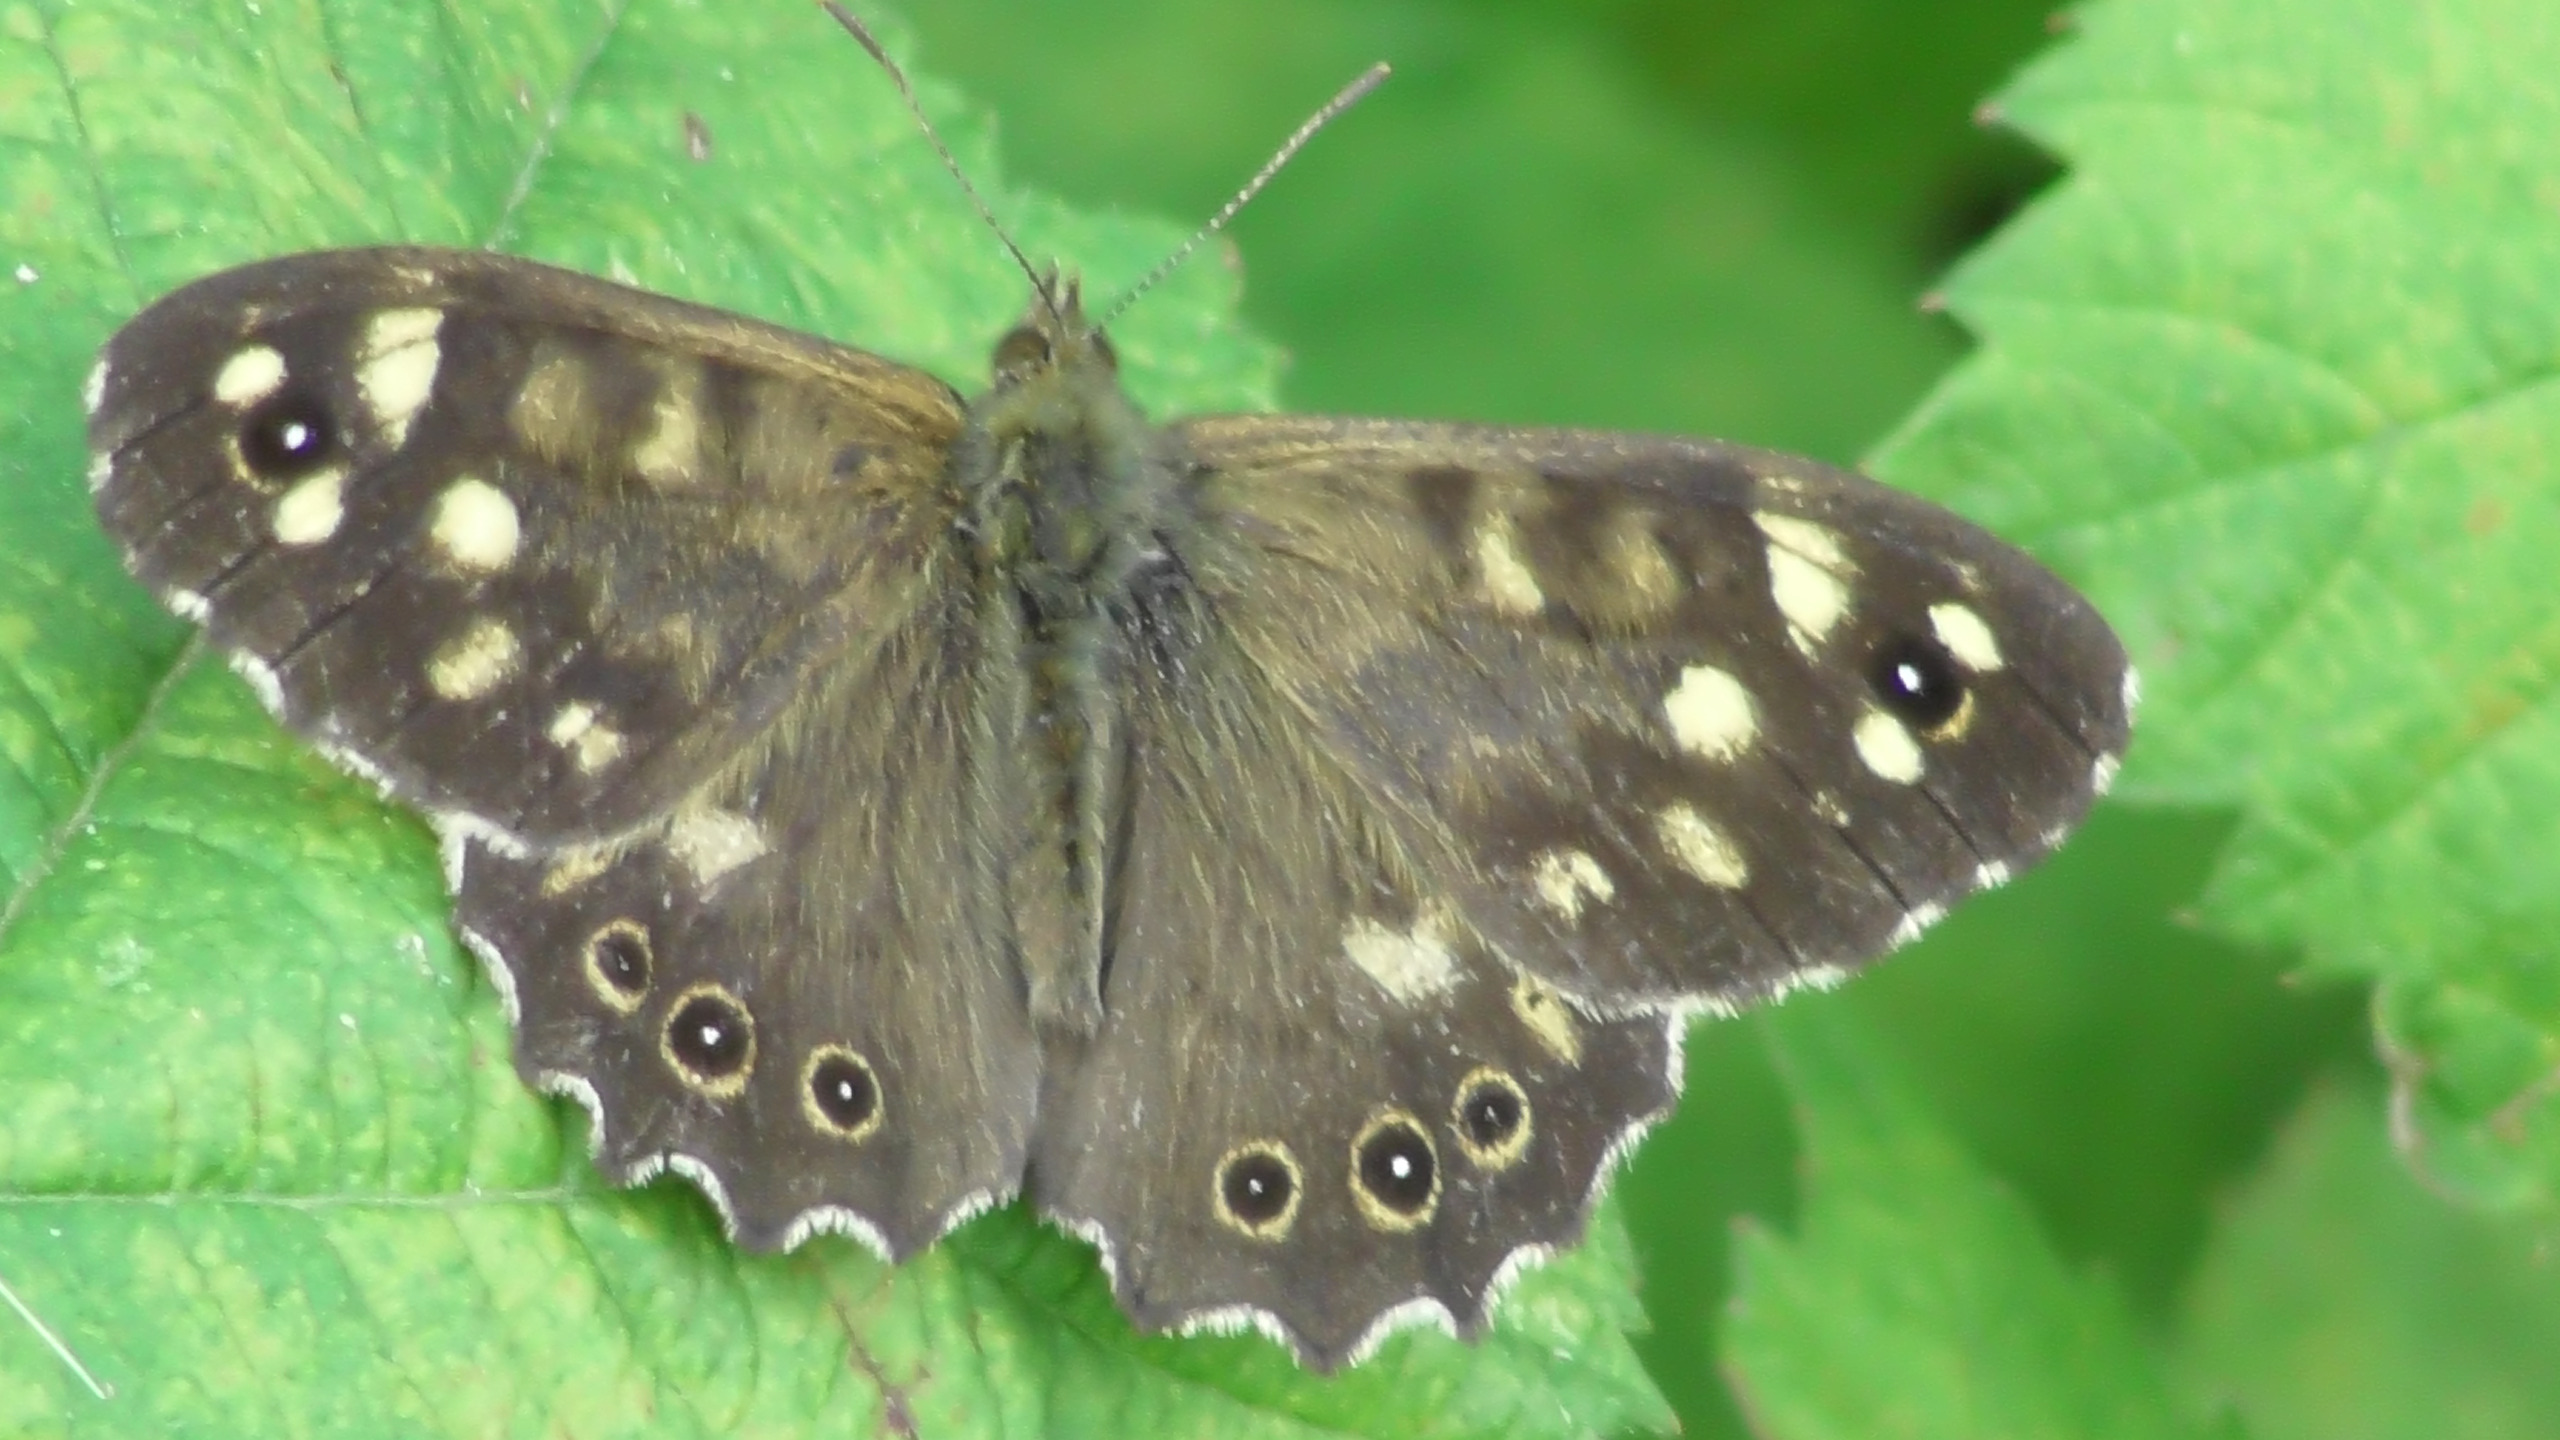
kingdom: Animalia
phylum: Arthropoda
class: Insecta
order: Lepidoptera
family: Nymphalidae
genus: Pararge
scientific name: Pararge aegeria
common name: Skovrandøje
